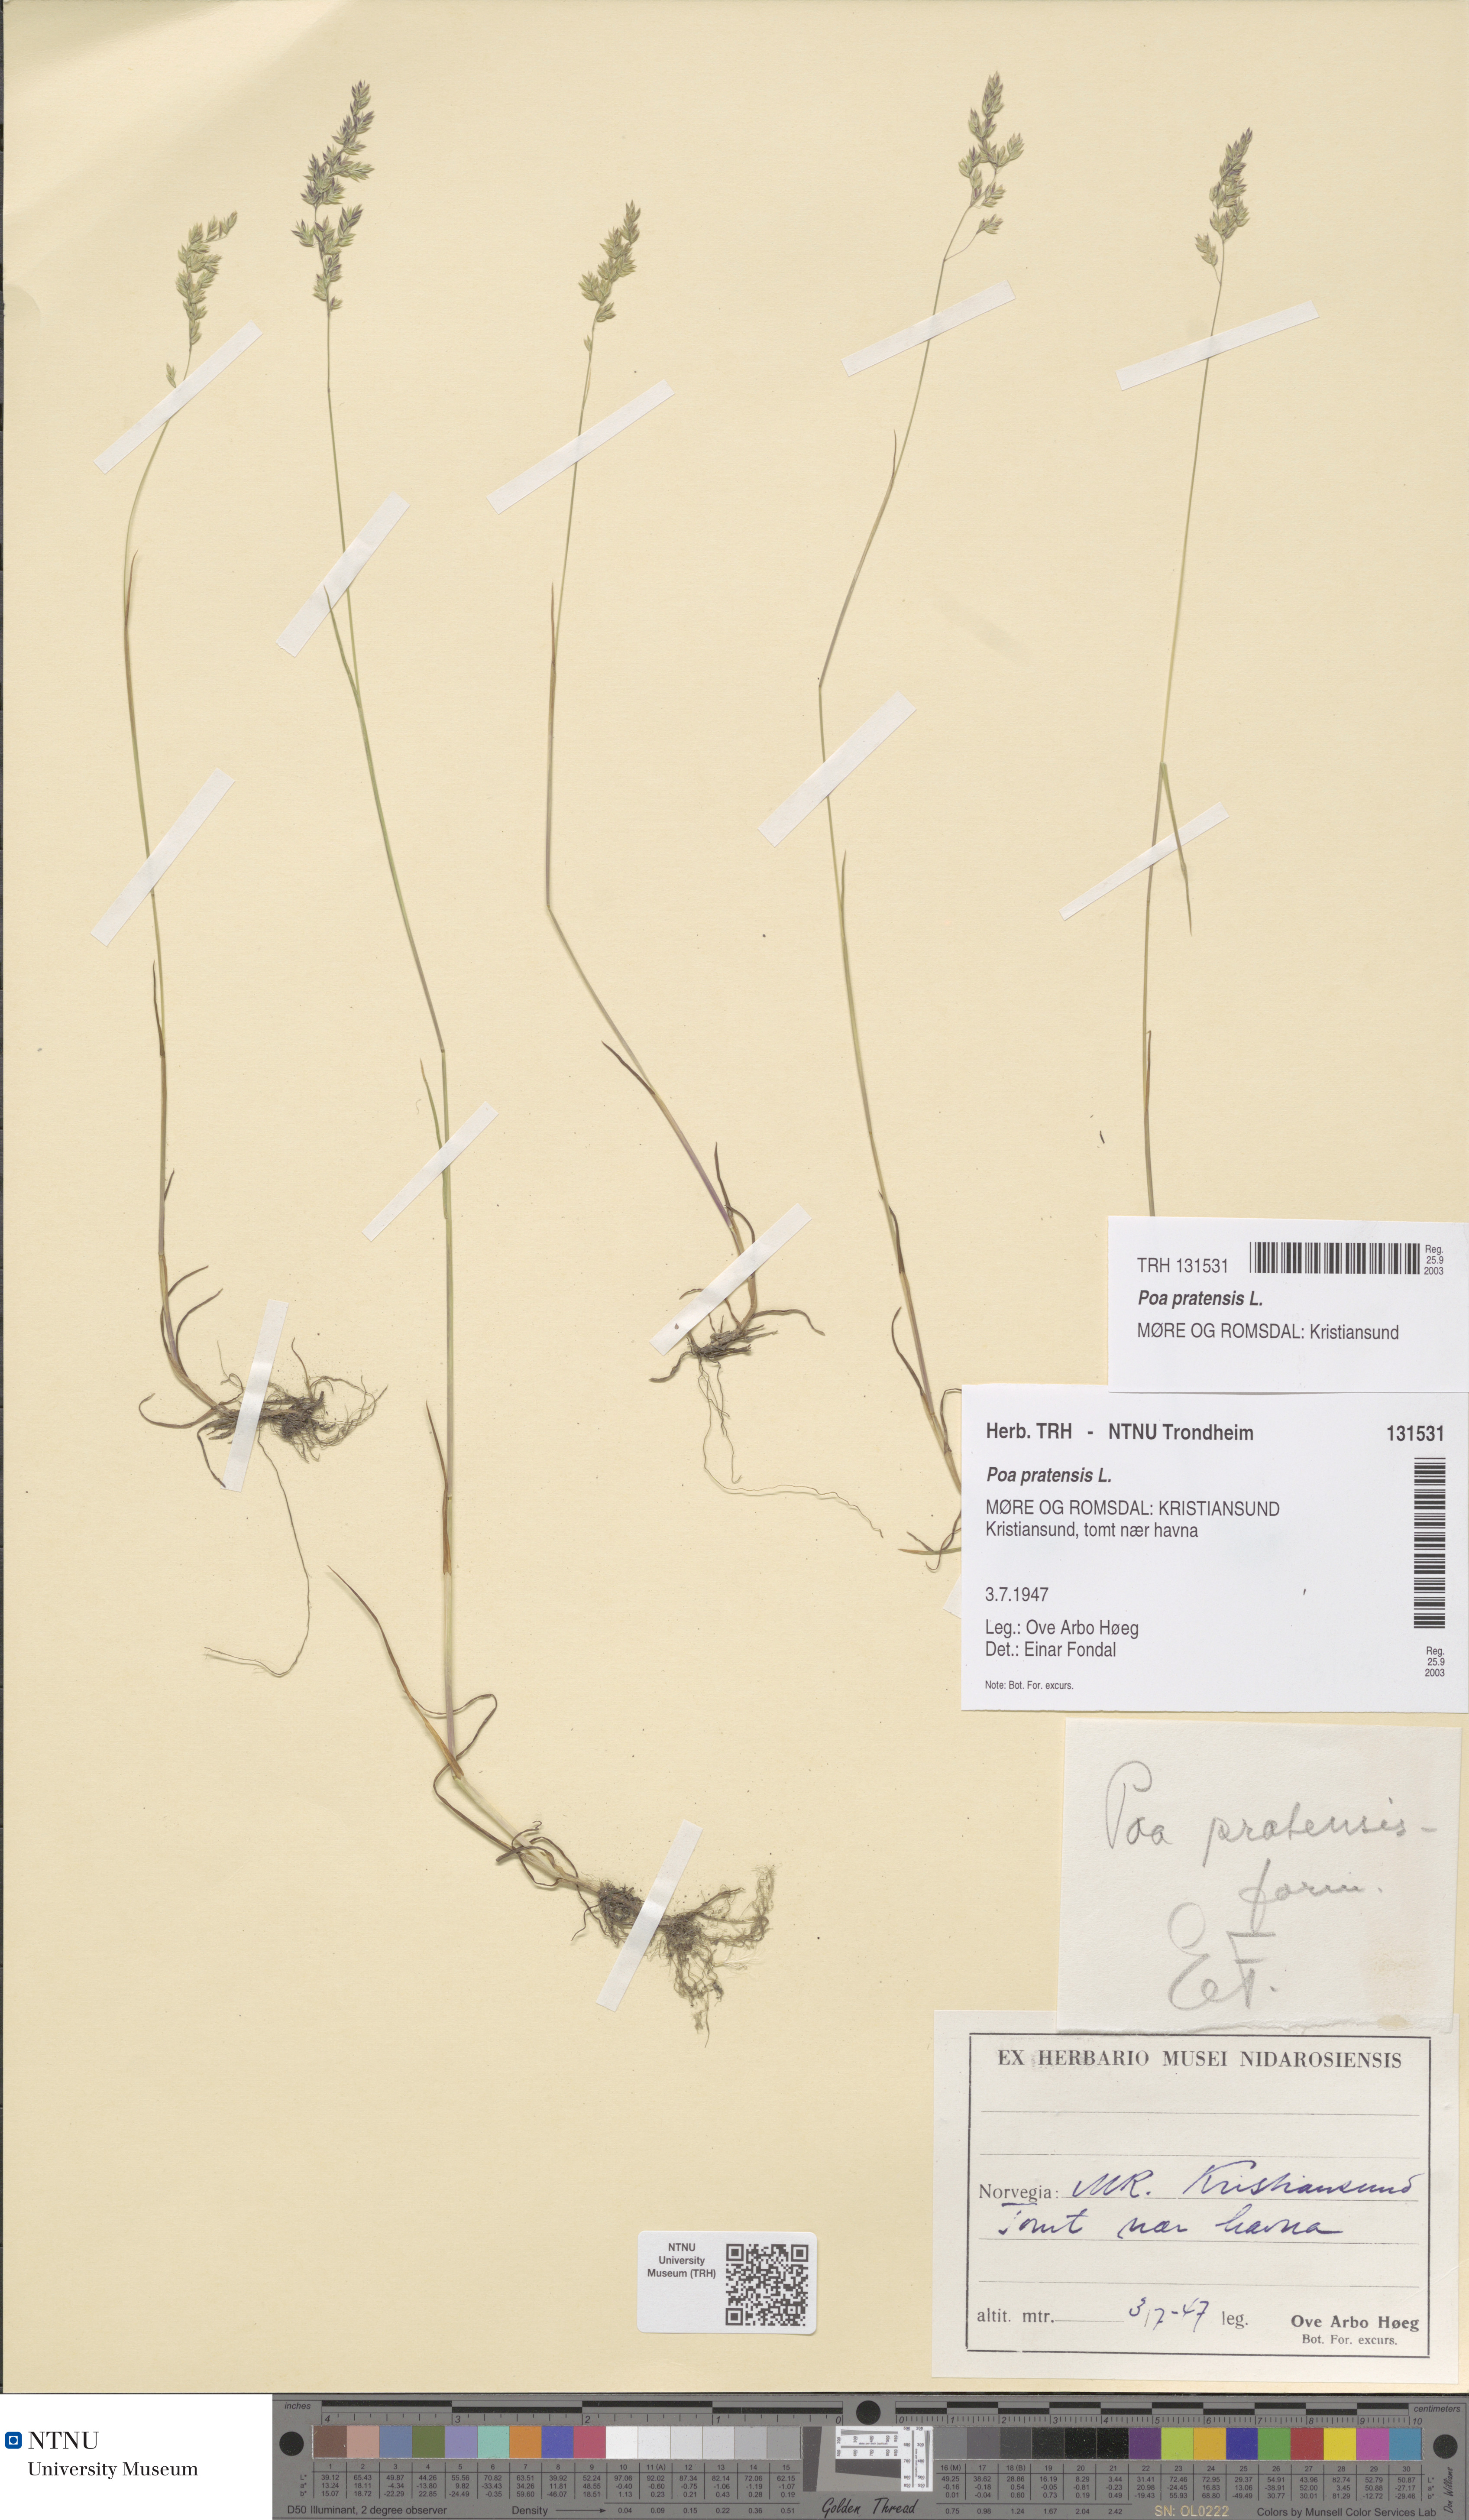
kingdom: Plantae
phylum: Tracheophyta
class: Liliopsida
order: Poales
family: Poaceae
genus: Poa
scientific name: Poa pratensis
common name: Kentucky bluegrass
